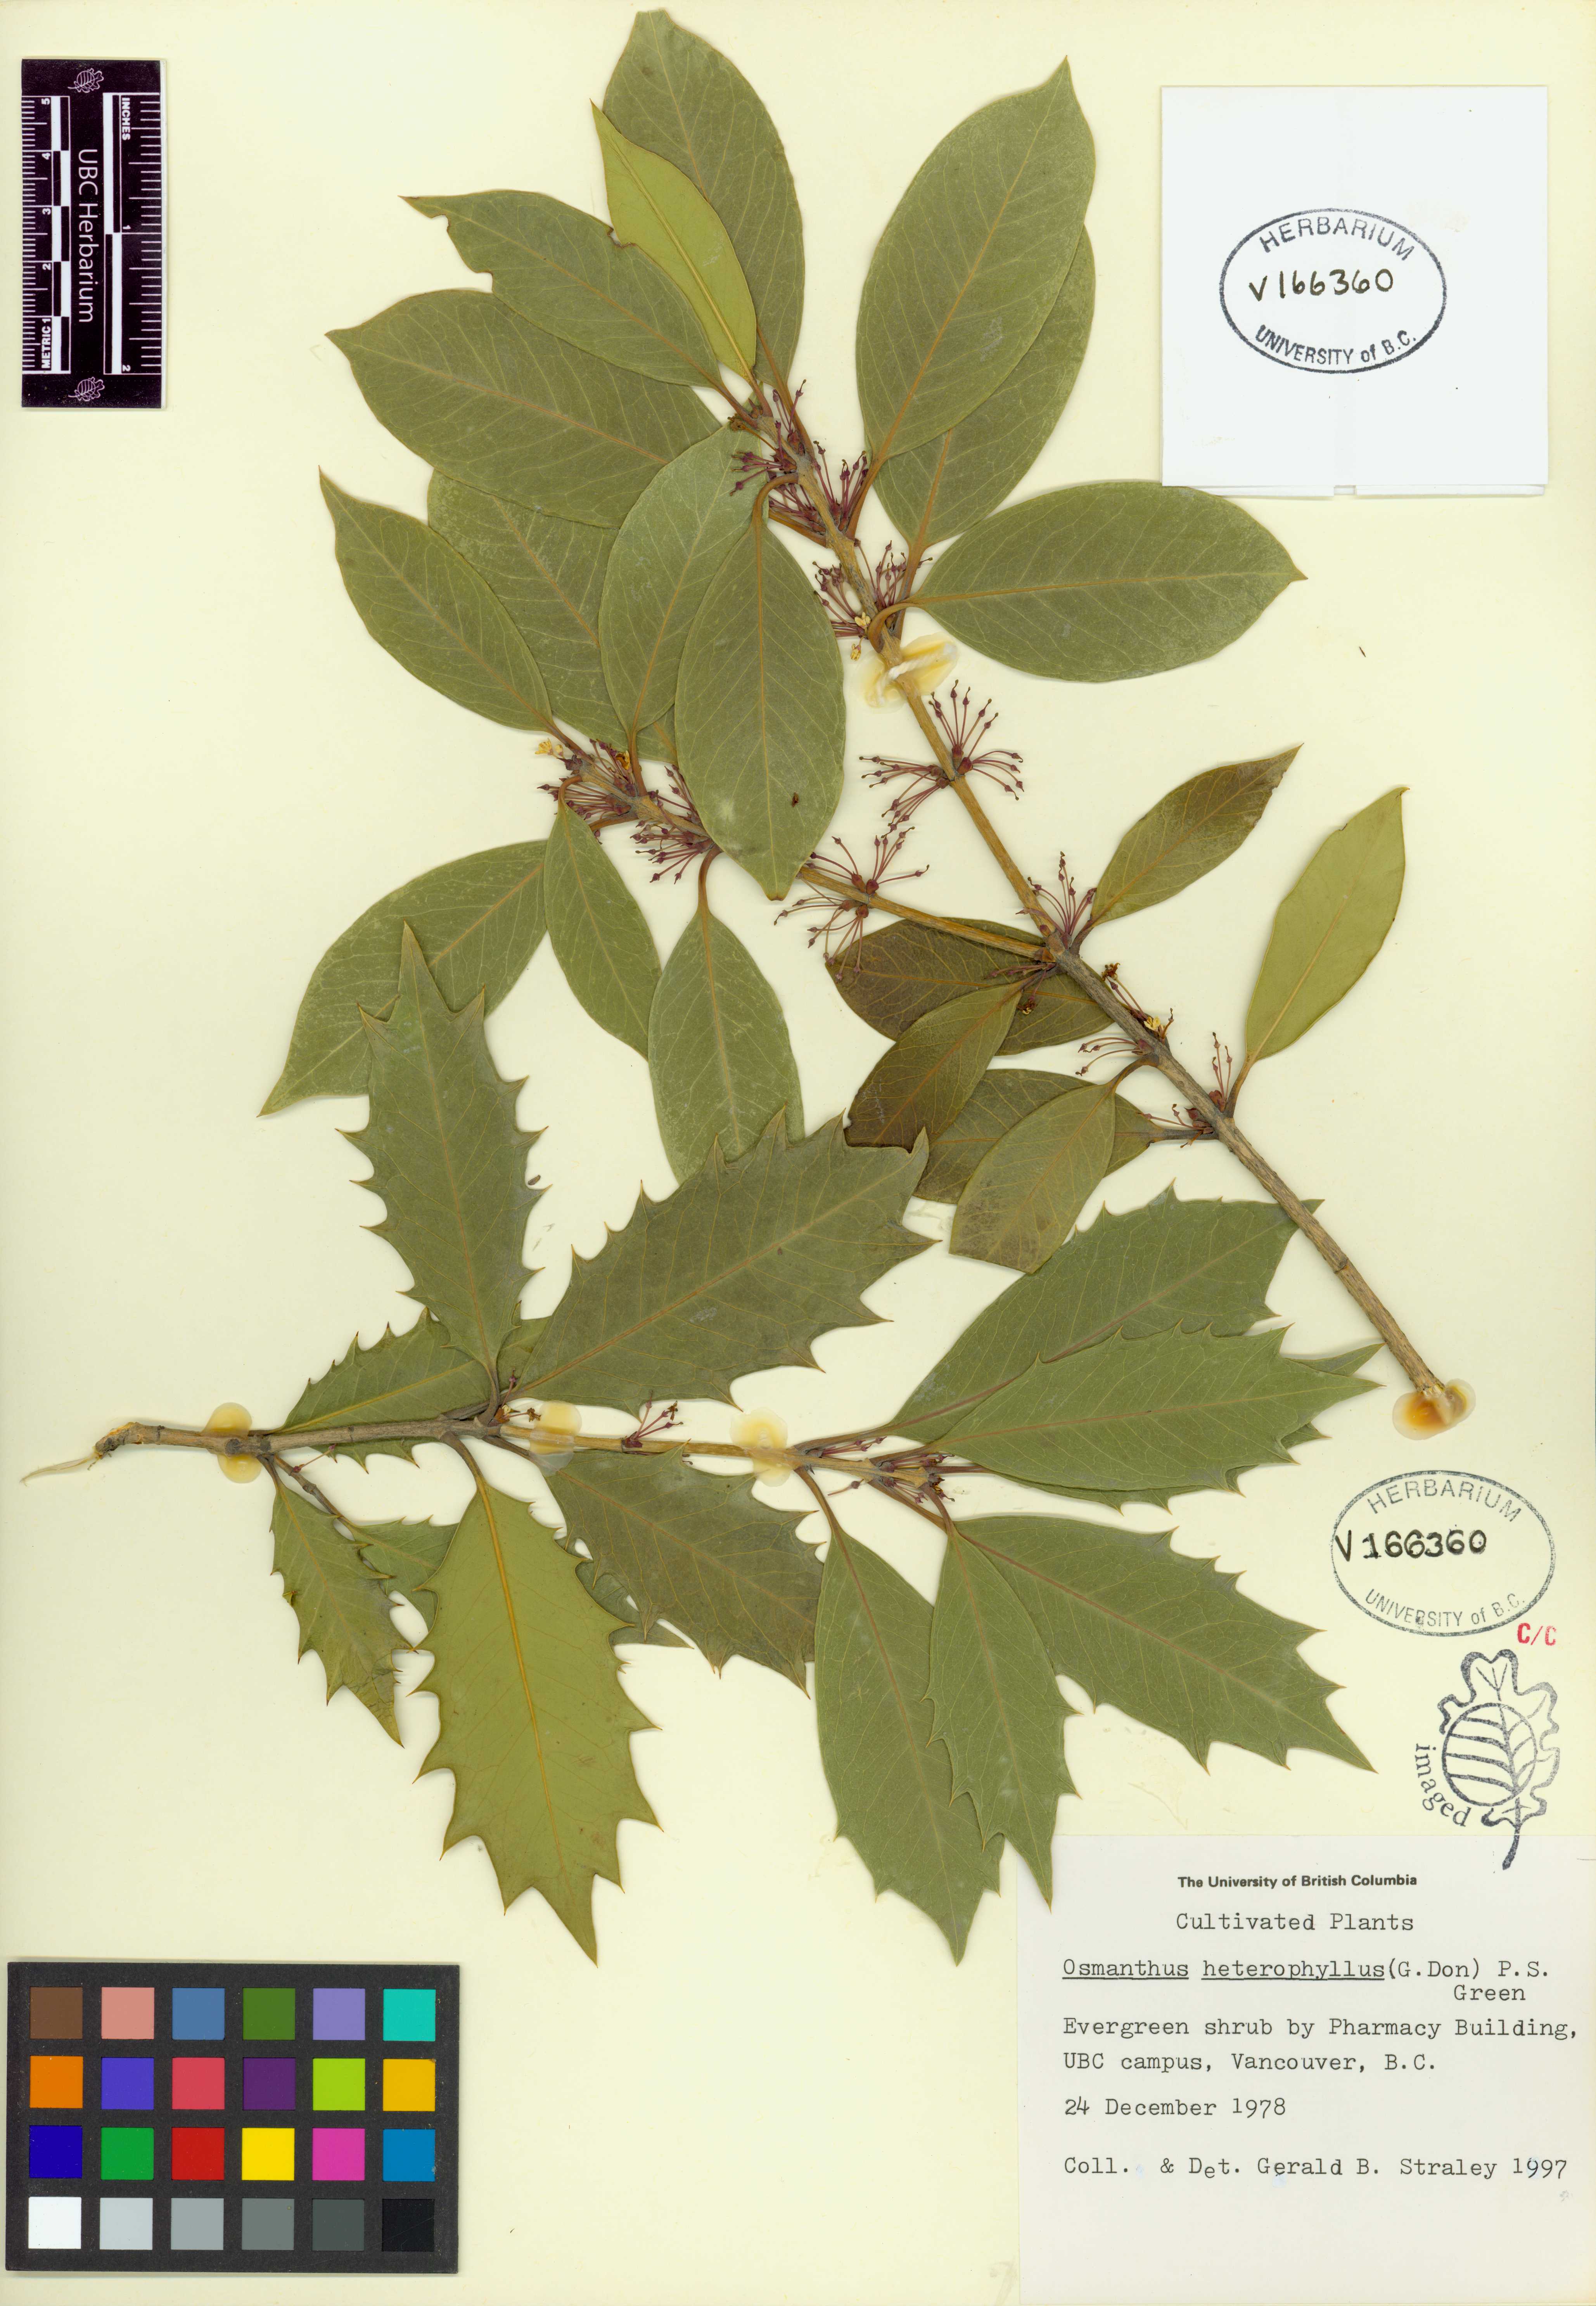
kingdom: Plantae
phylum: Tracheophyta
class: Magnoliopsida
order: Lamiales
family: Oleaceae
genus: Osmanthus
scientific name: Osmanthus heterophyllus
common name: Holly osmanthus
